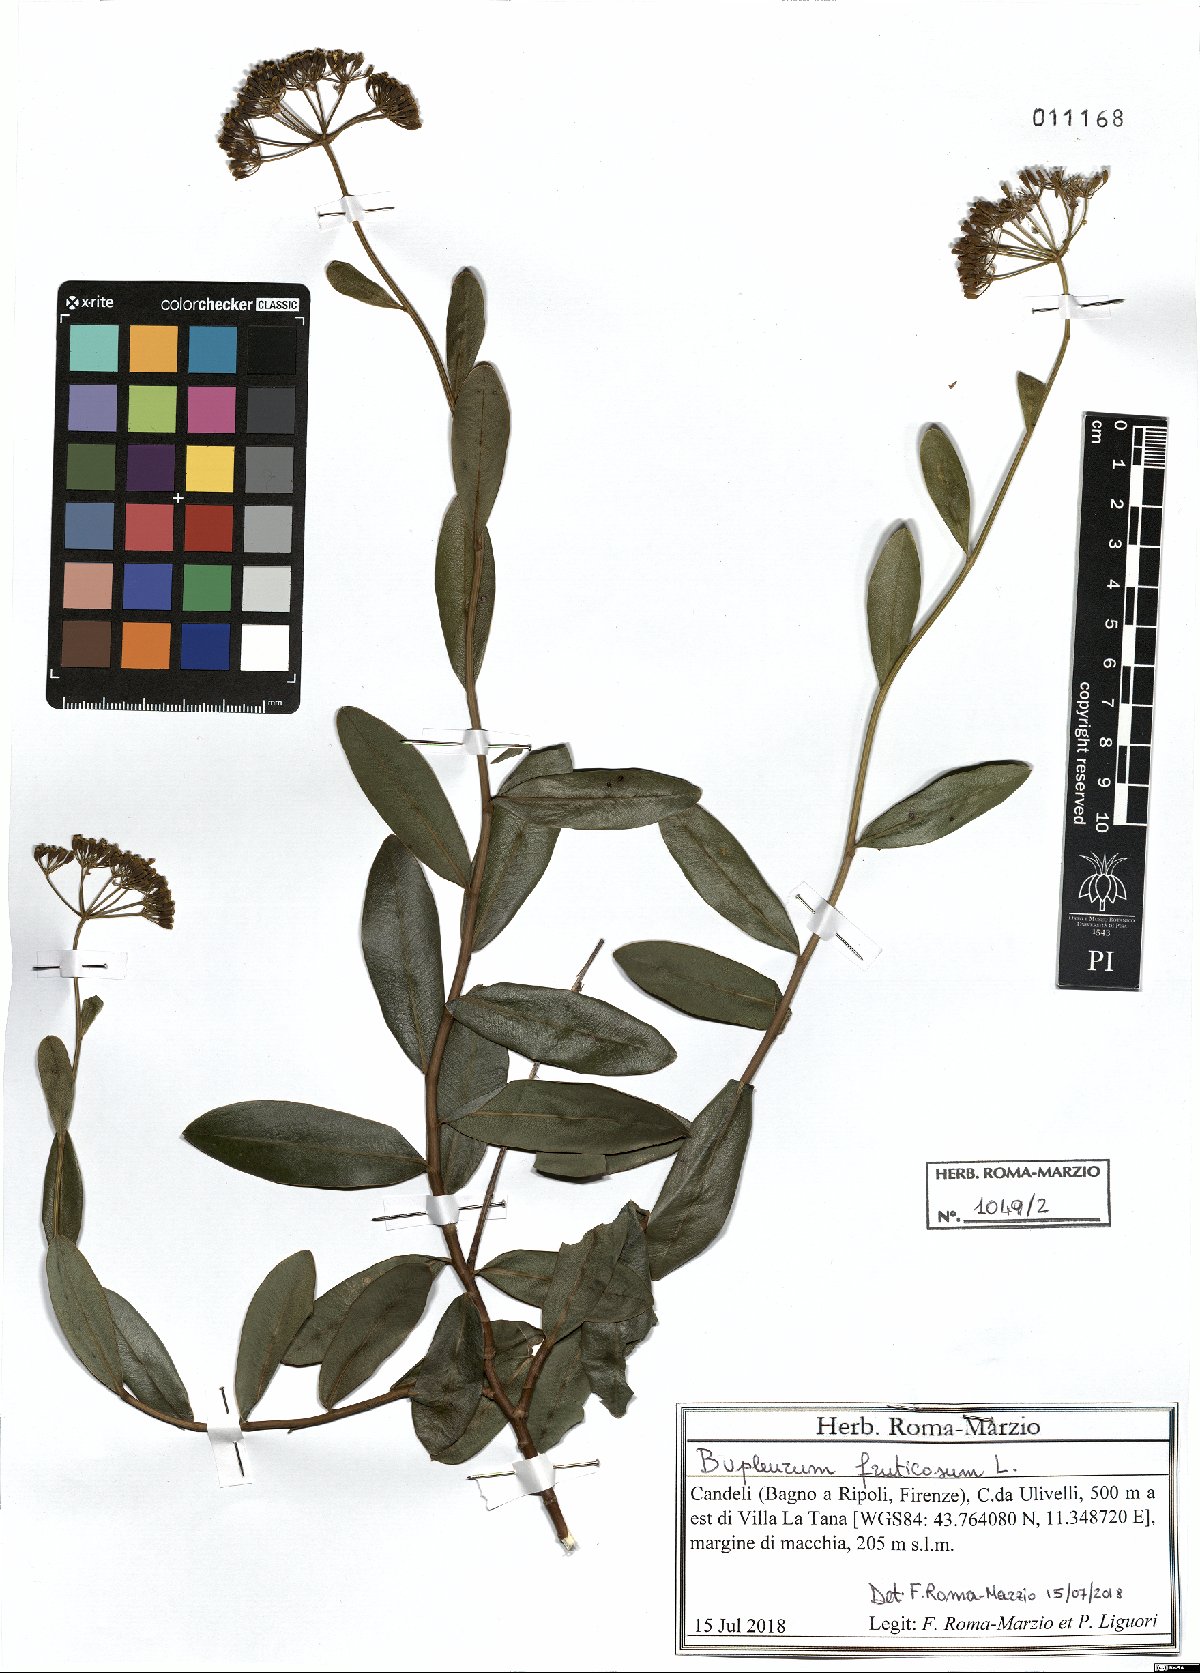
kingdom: Plantae
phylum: Tracheophyta
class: Magnoliopsida
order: Apiales
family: Apiaceae
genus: Bupleurum
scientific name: Bupleurum fruticosum
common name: Shrubby hare's-ear
